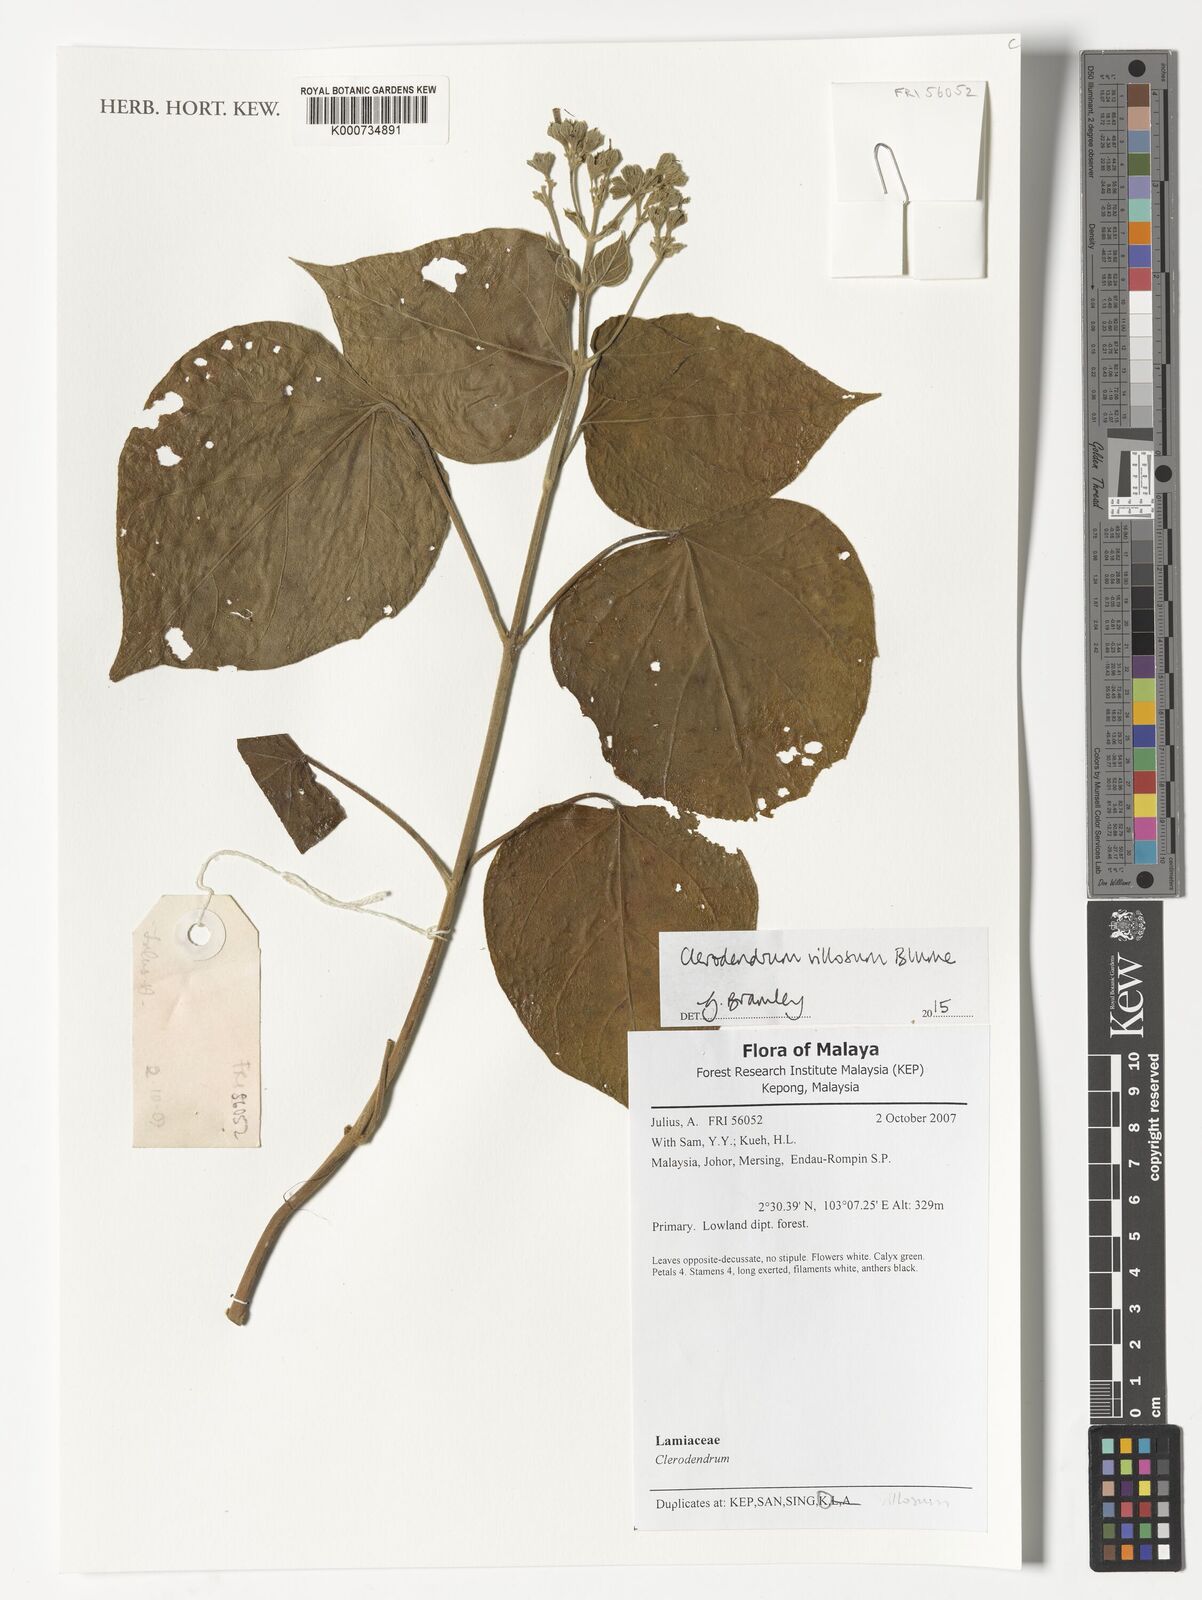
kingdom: Plantae
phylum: Tracheophyta
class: Magnoliopsida
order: Lamiales
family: Lamiaceae
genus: Clerodendrum
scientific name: Clerodendrum villosum
